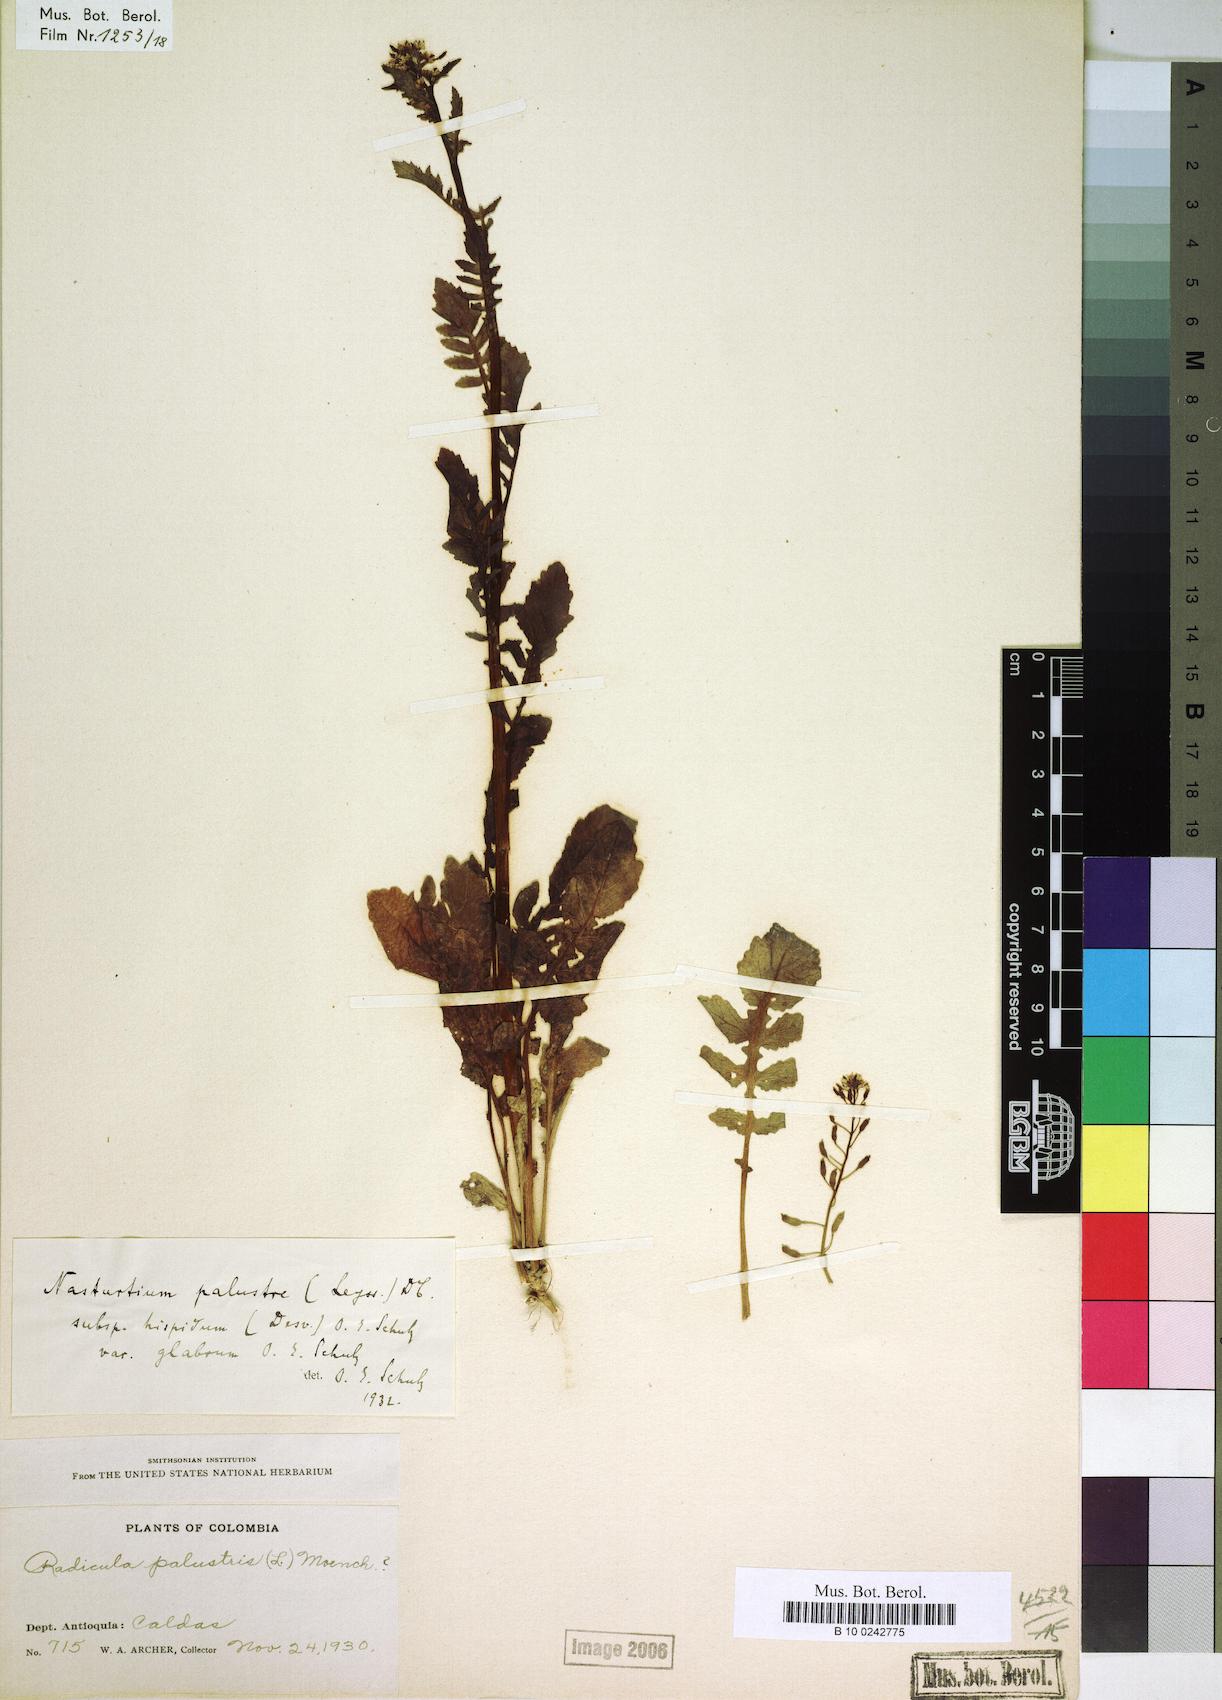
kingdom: Plantae
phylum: Tracheophyta
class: Magnoliopsida
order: Brassicales
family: Brassicaceae
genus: Rorippa
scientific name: Rorippa hispida
